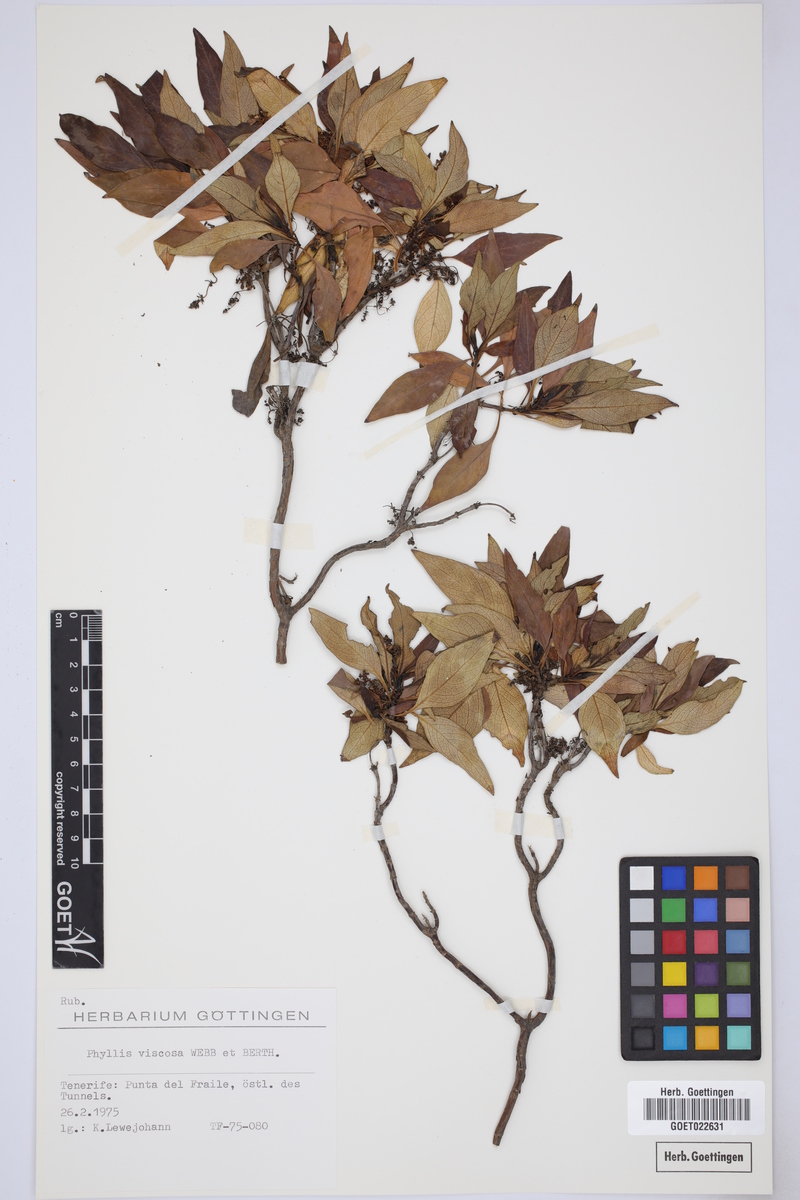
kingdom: Plantae
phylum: Tracheophyta
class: Magnoliopsida
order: Gentianales
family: Rubiaceae
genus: Phyllis
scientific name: Phyllis viscosa
